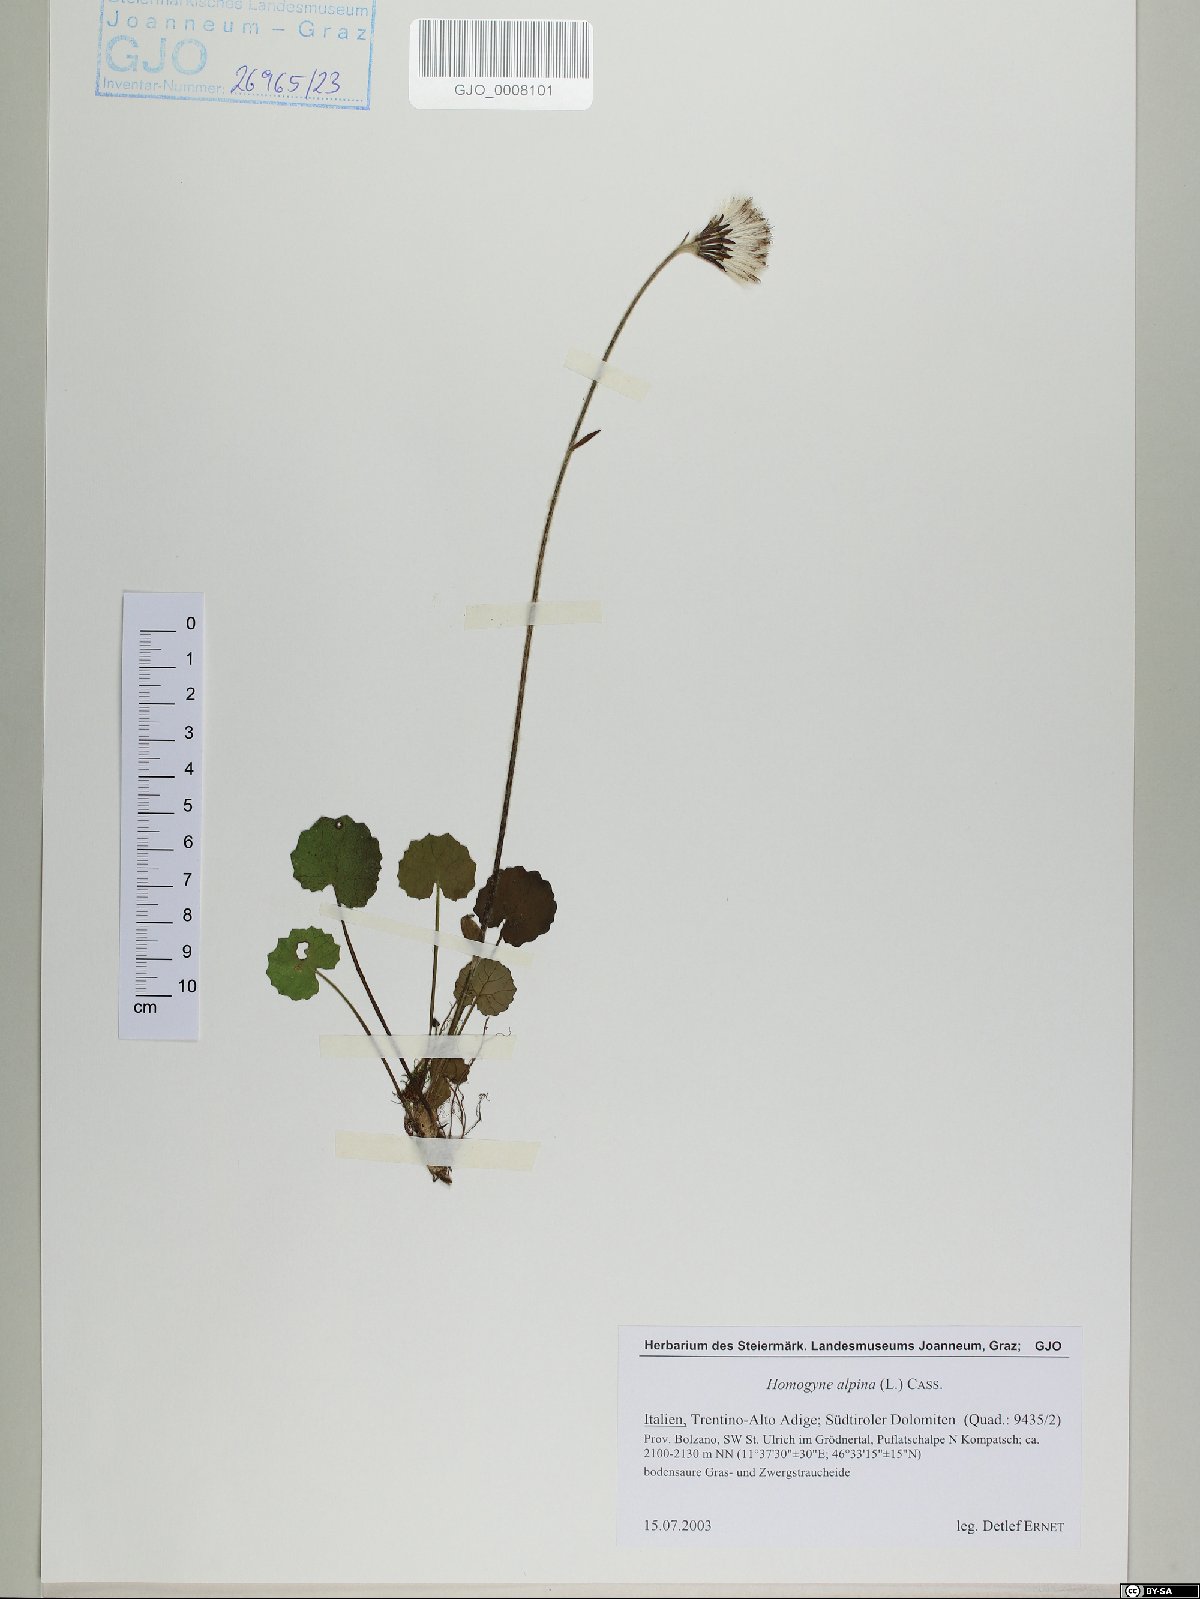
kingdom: Plantae
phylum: Tracheophyta
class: Magnoliopsida
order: Asterales
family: Asteraceae
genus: Homogyne
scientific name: Homogyne alpina
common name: Purple colt's-foot
